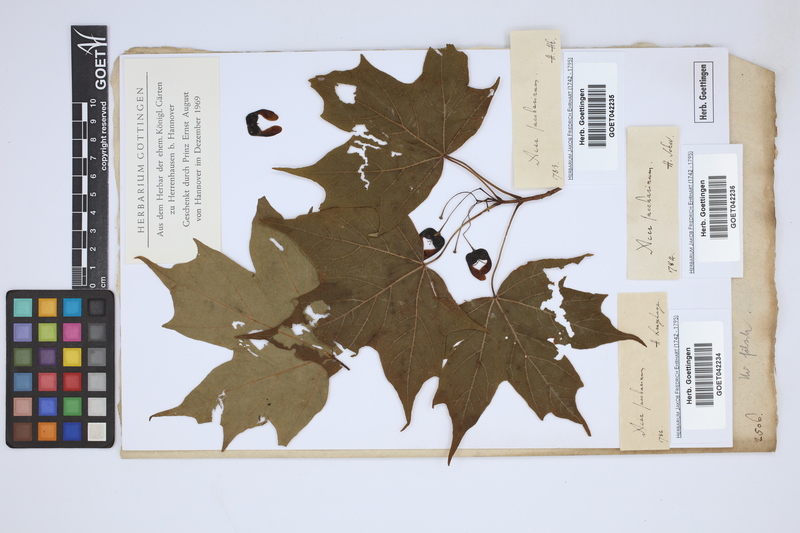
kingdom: Plantae
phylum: Tracheophyta
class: Magnoliopsida
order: Sapindales
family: Sapindaceae
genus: Acer
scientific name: Acer saccharinum
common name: Silver maple
